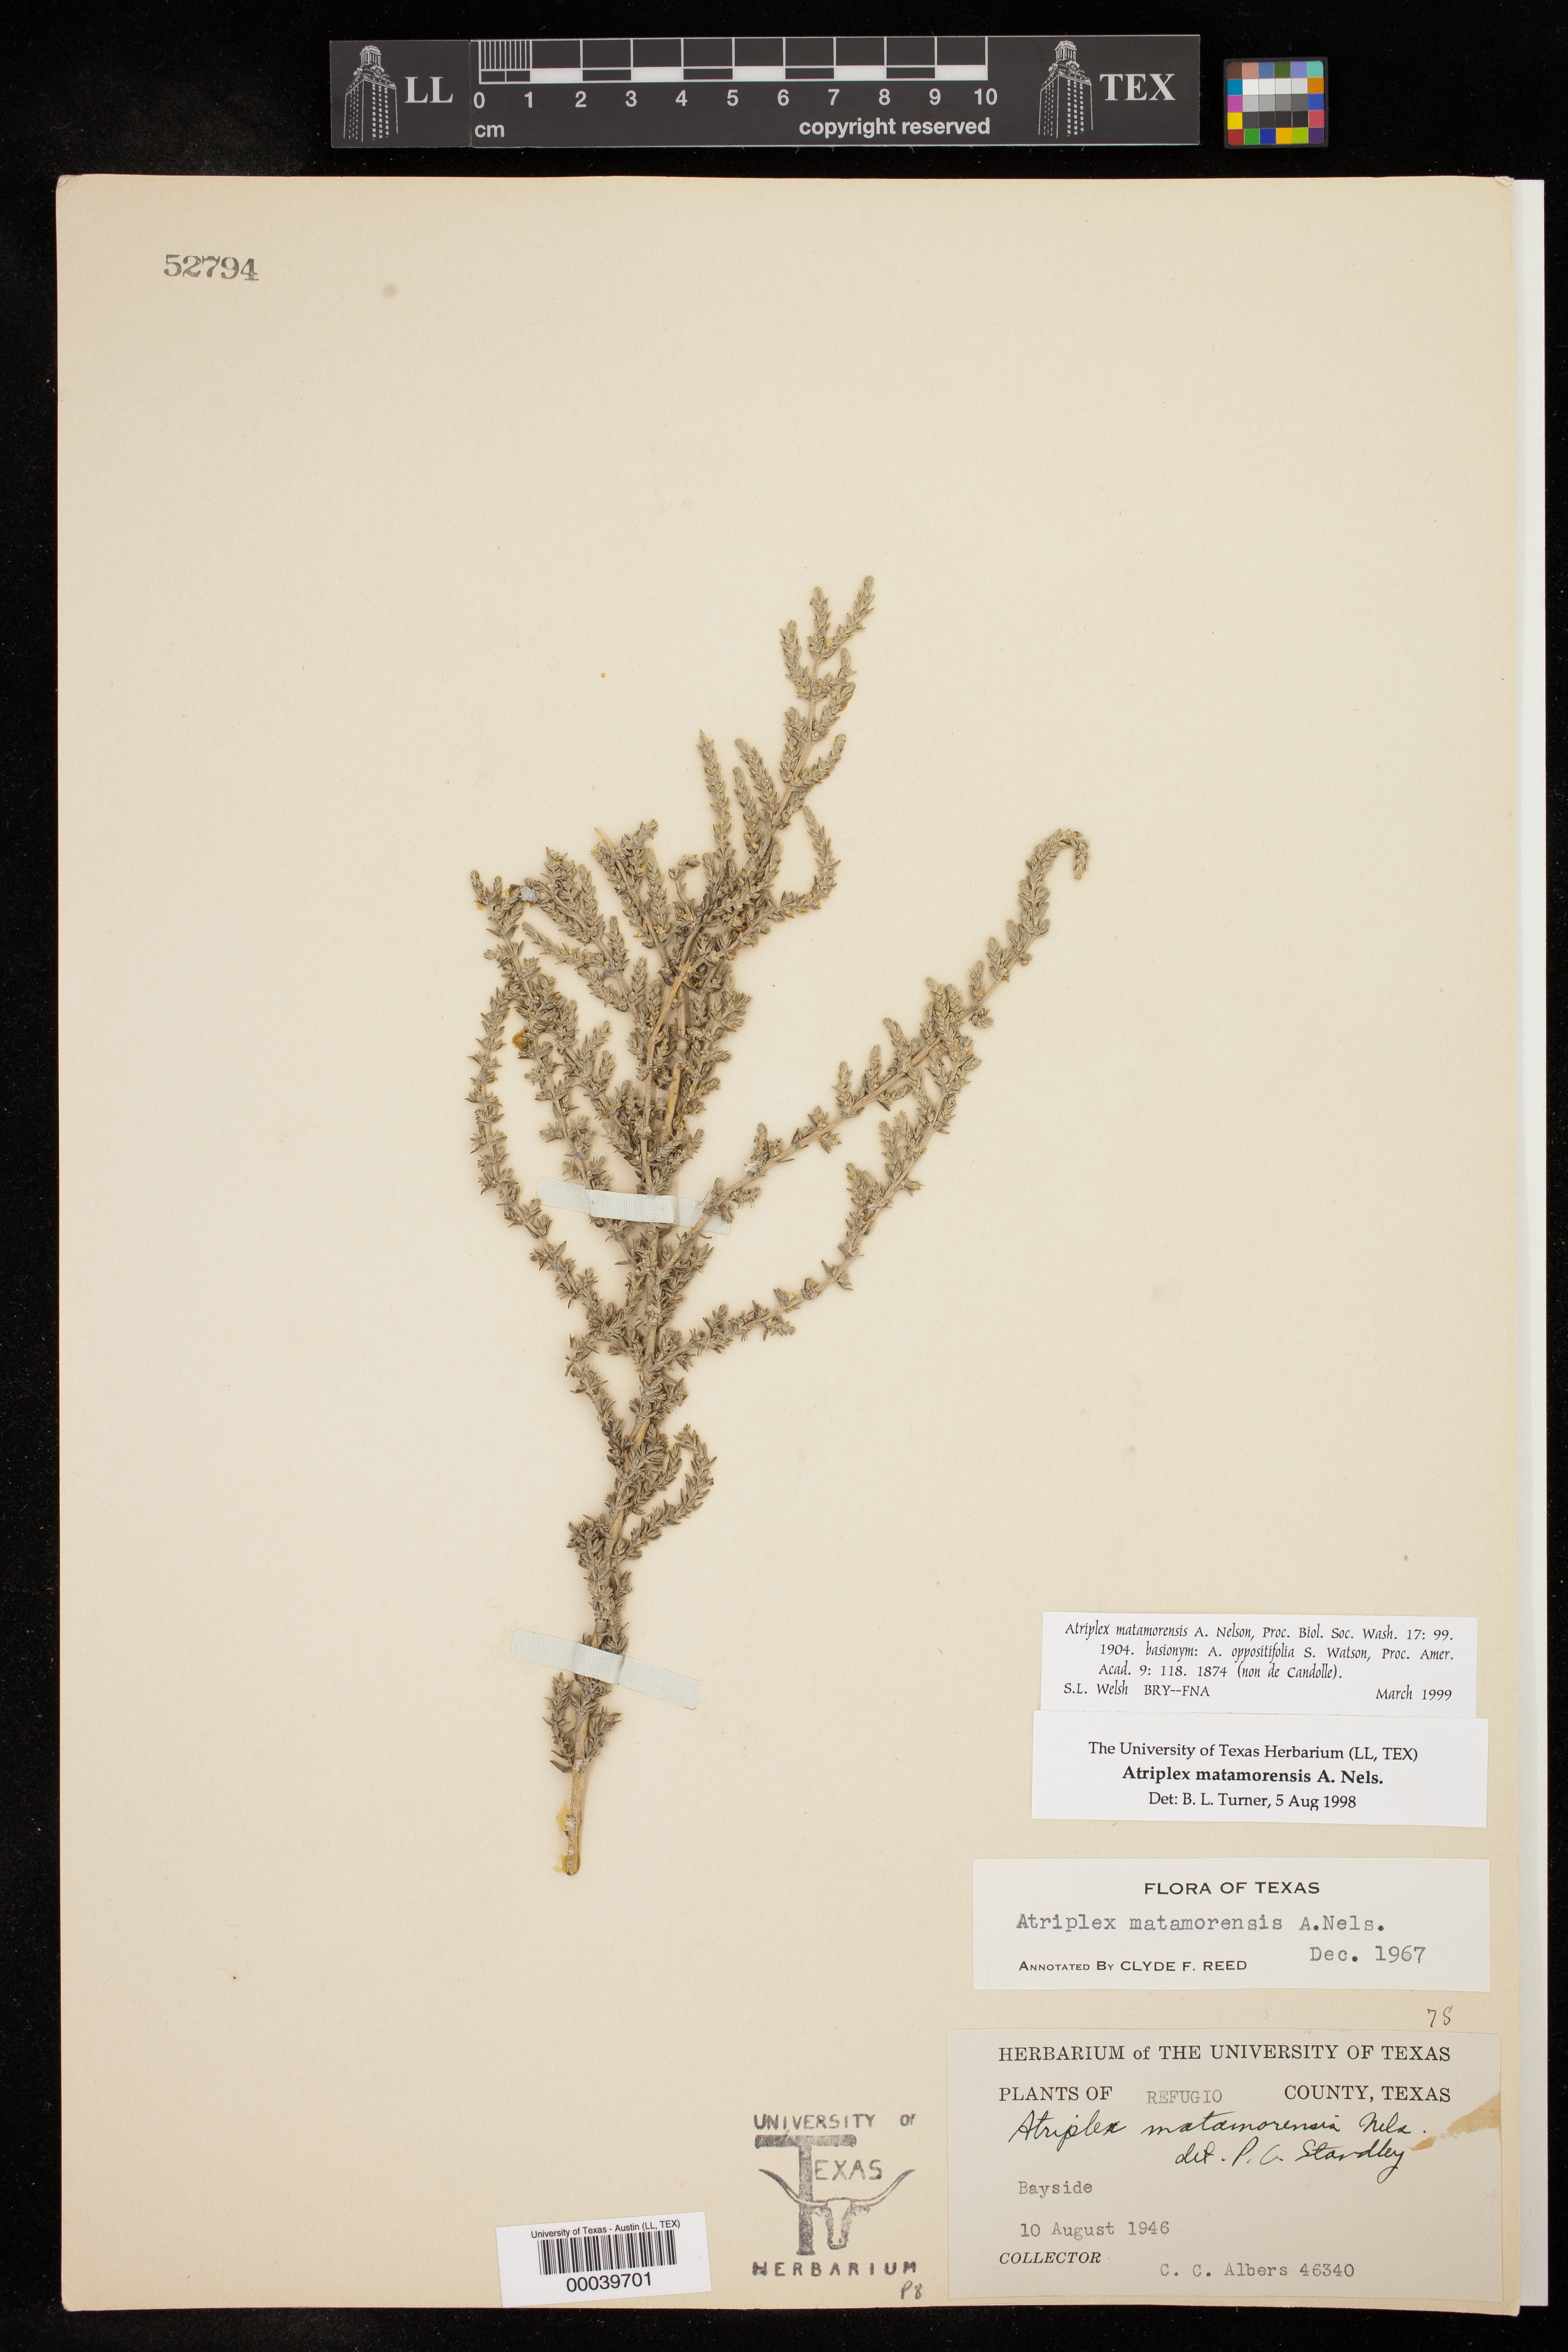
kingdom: Plantae
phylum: Tracheophyta
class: Magnoliopsida
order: Caryophyllales
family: Amaranthaceae
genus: Atriplex
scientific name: Atriplex matamorensis
